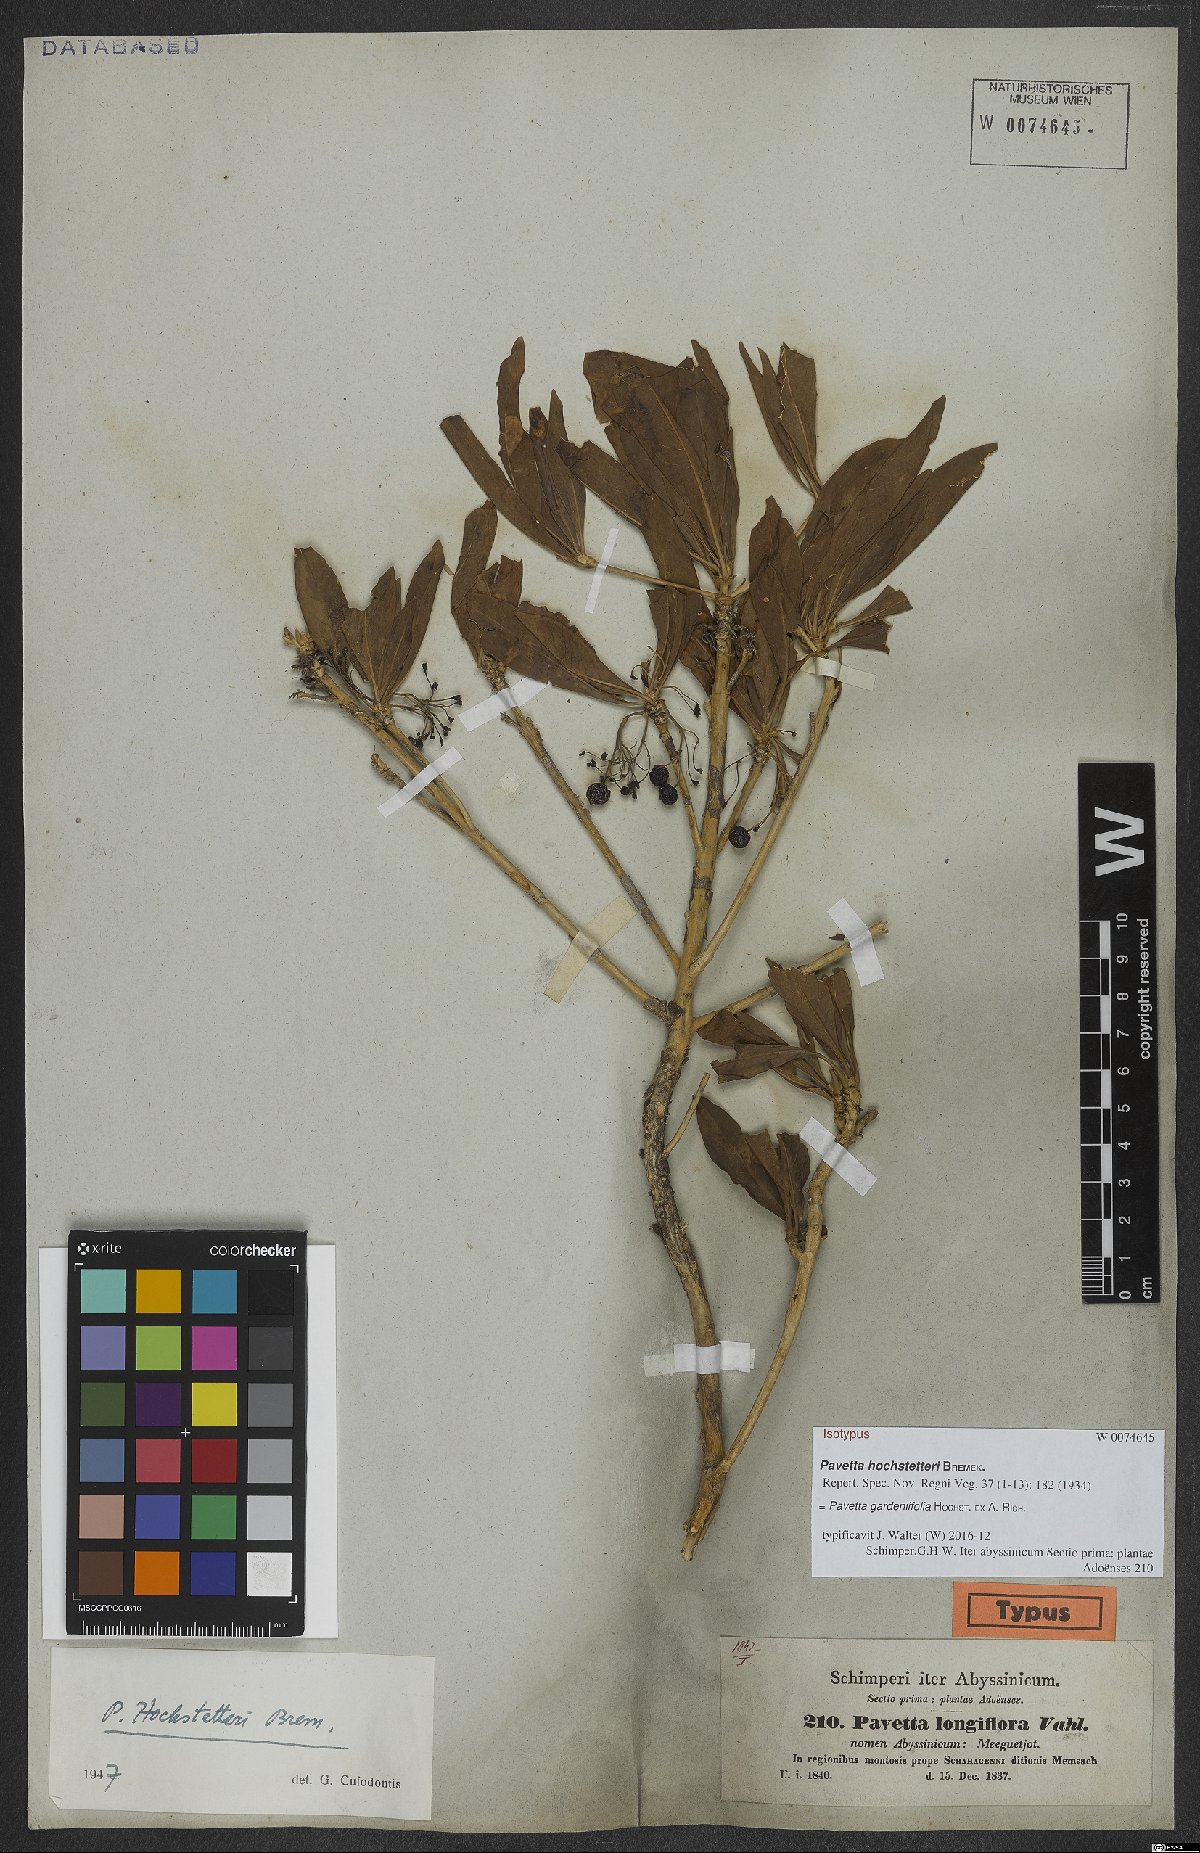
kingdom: Plantae
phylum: Tracheophyta
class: Magnoliopsida
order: Gentianales
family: Rubiaceae
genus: Pavetta
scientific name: Pavetta gardeniifolia
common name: Common brides-bush
